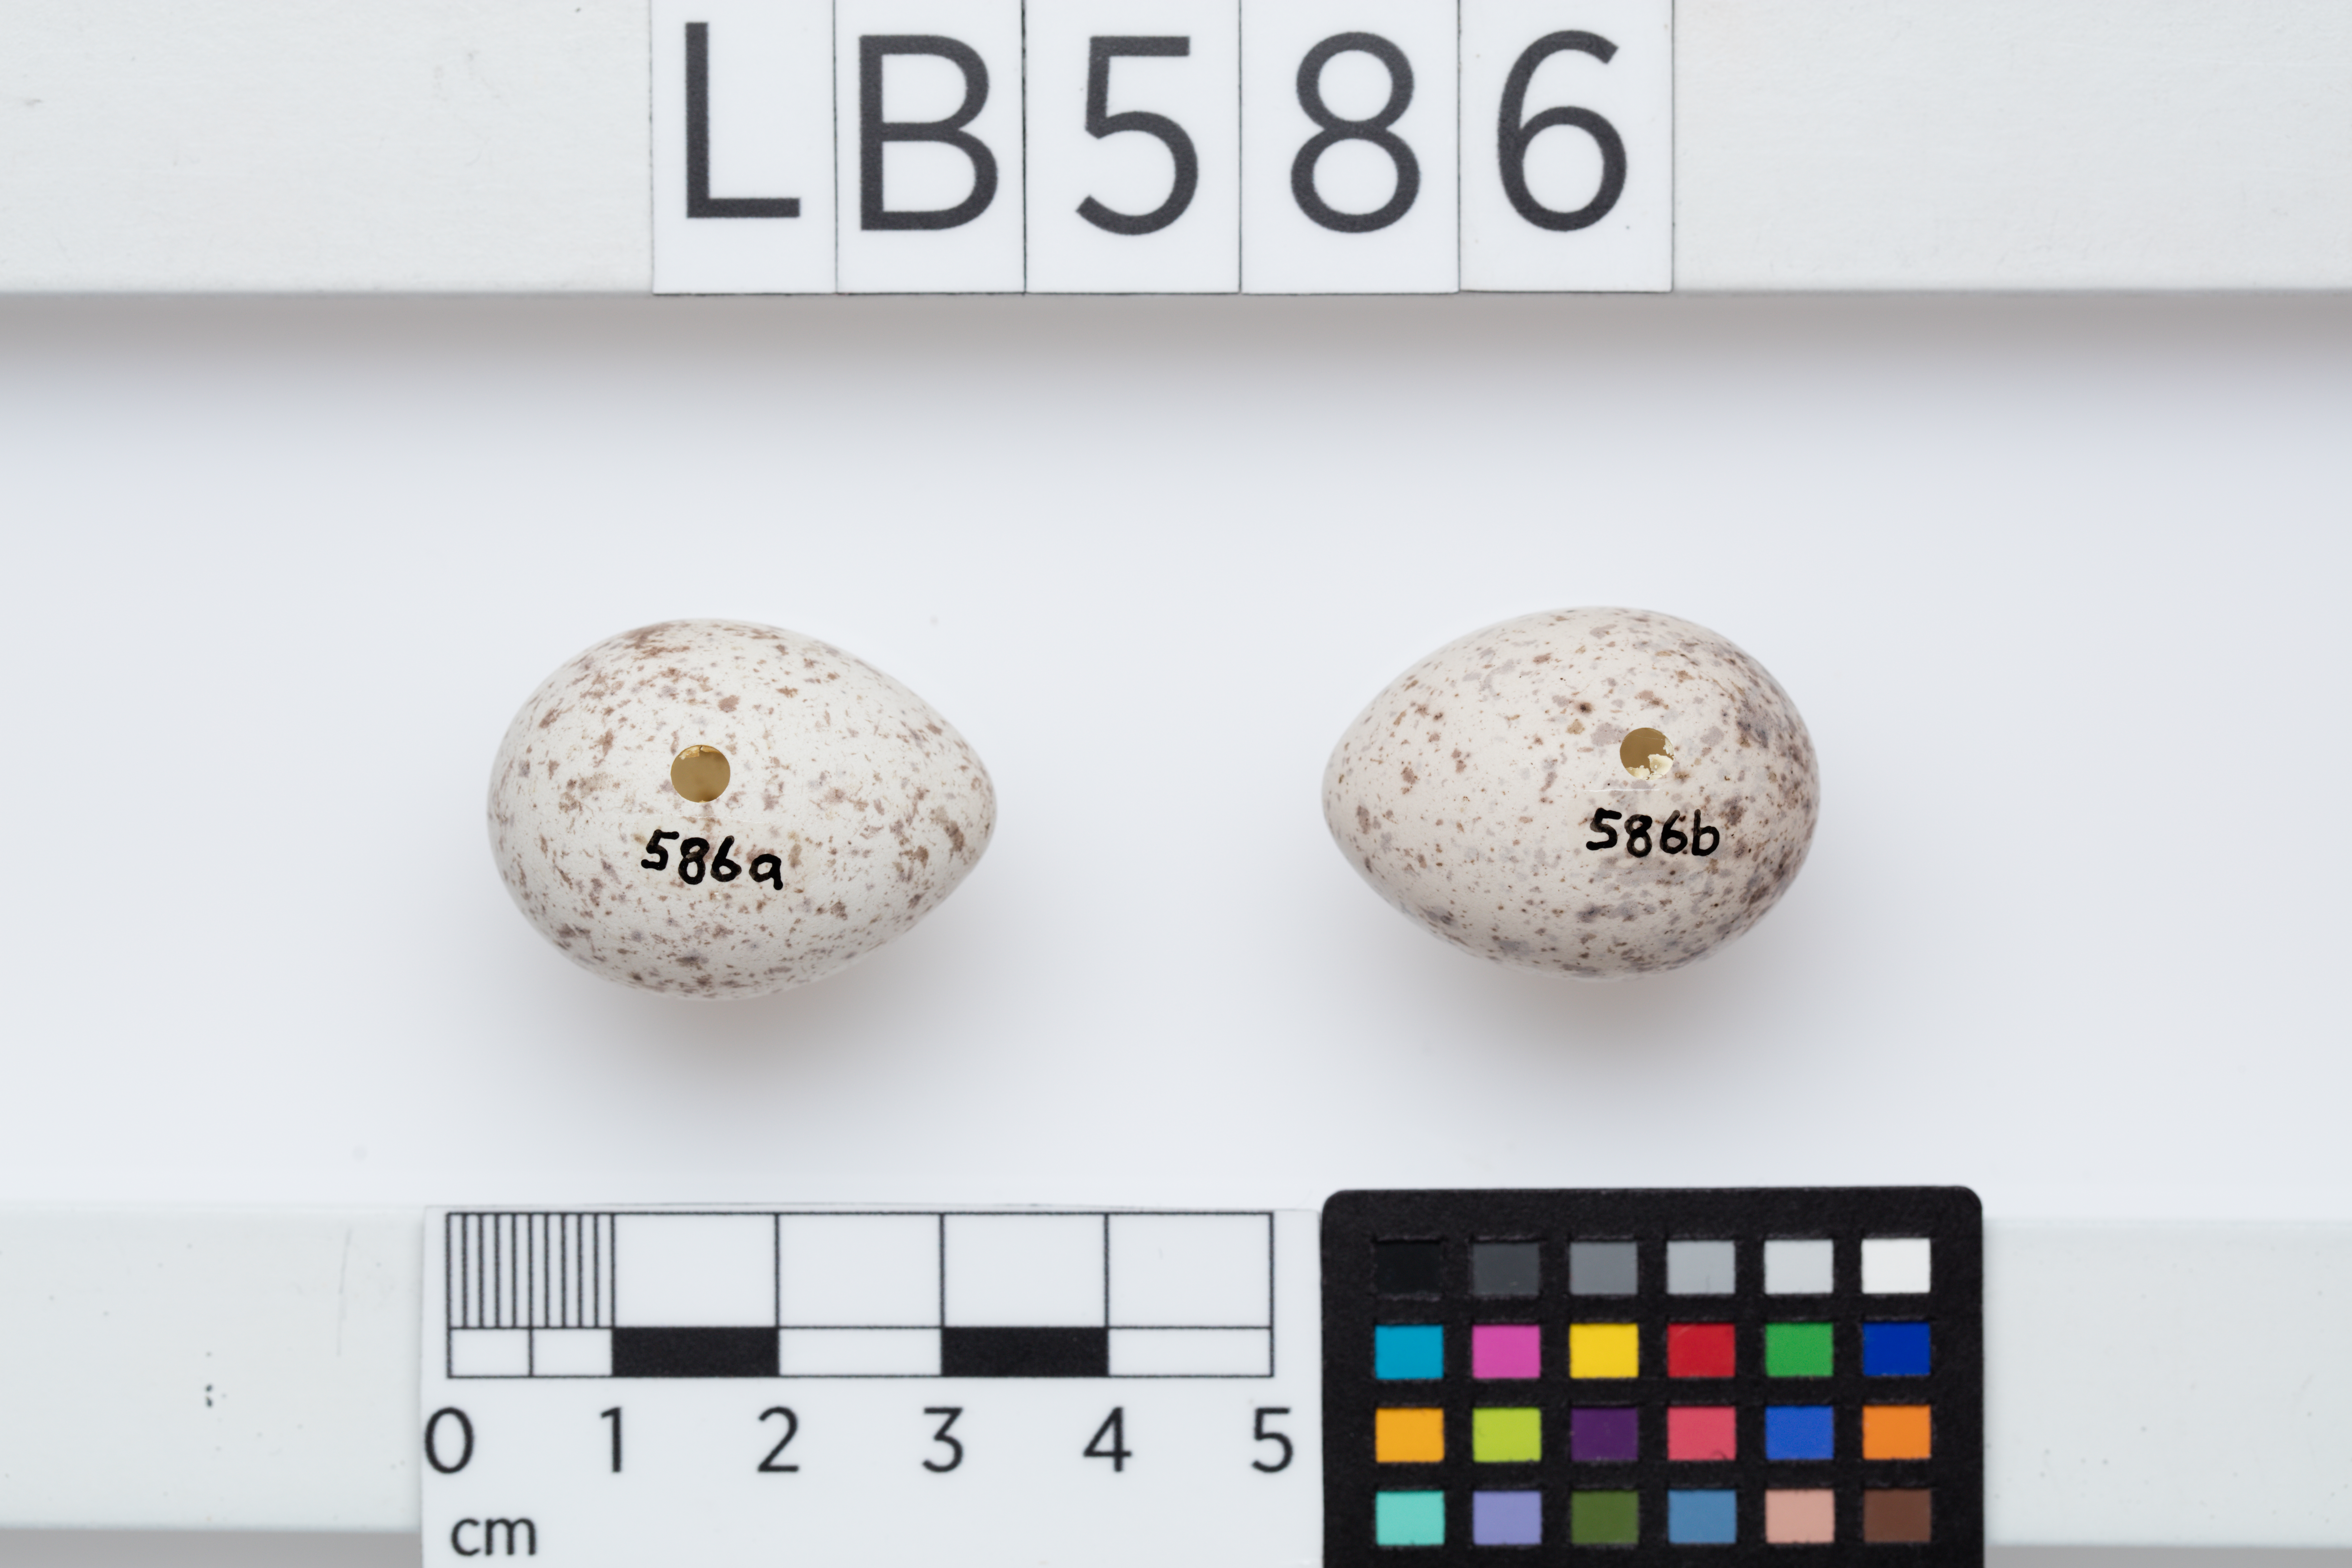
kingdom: Animalia
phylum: Chordata
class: Aves
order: Passeriformes
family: Callaeatidae
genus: Philesturnus
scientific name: Philesturnus carunculatus
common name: South island saddleback
